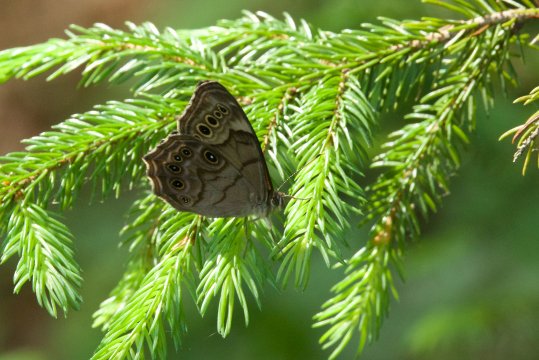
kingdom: Animalia
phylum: Arthropoda
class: Insecta
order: Lepidoptera
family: Nymphalidae
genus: Lethe
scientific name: Lethe anthedon
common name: Northern Pearly-Eye
